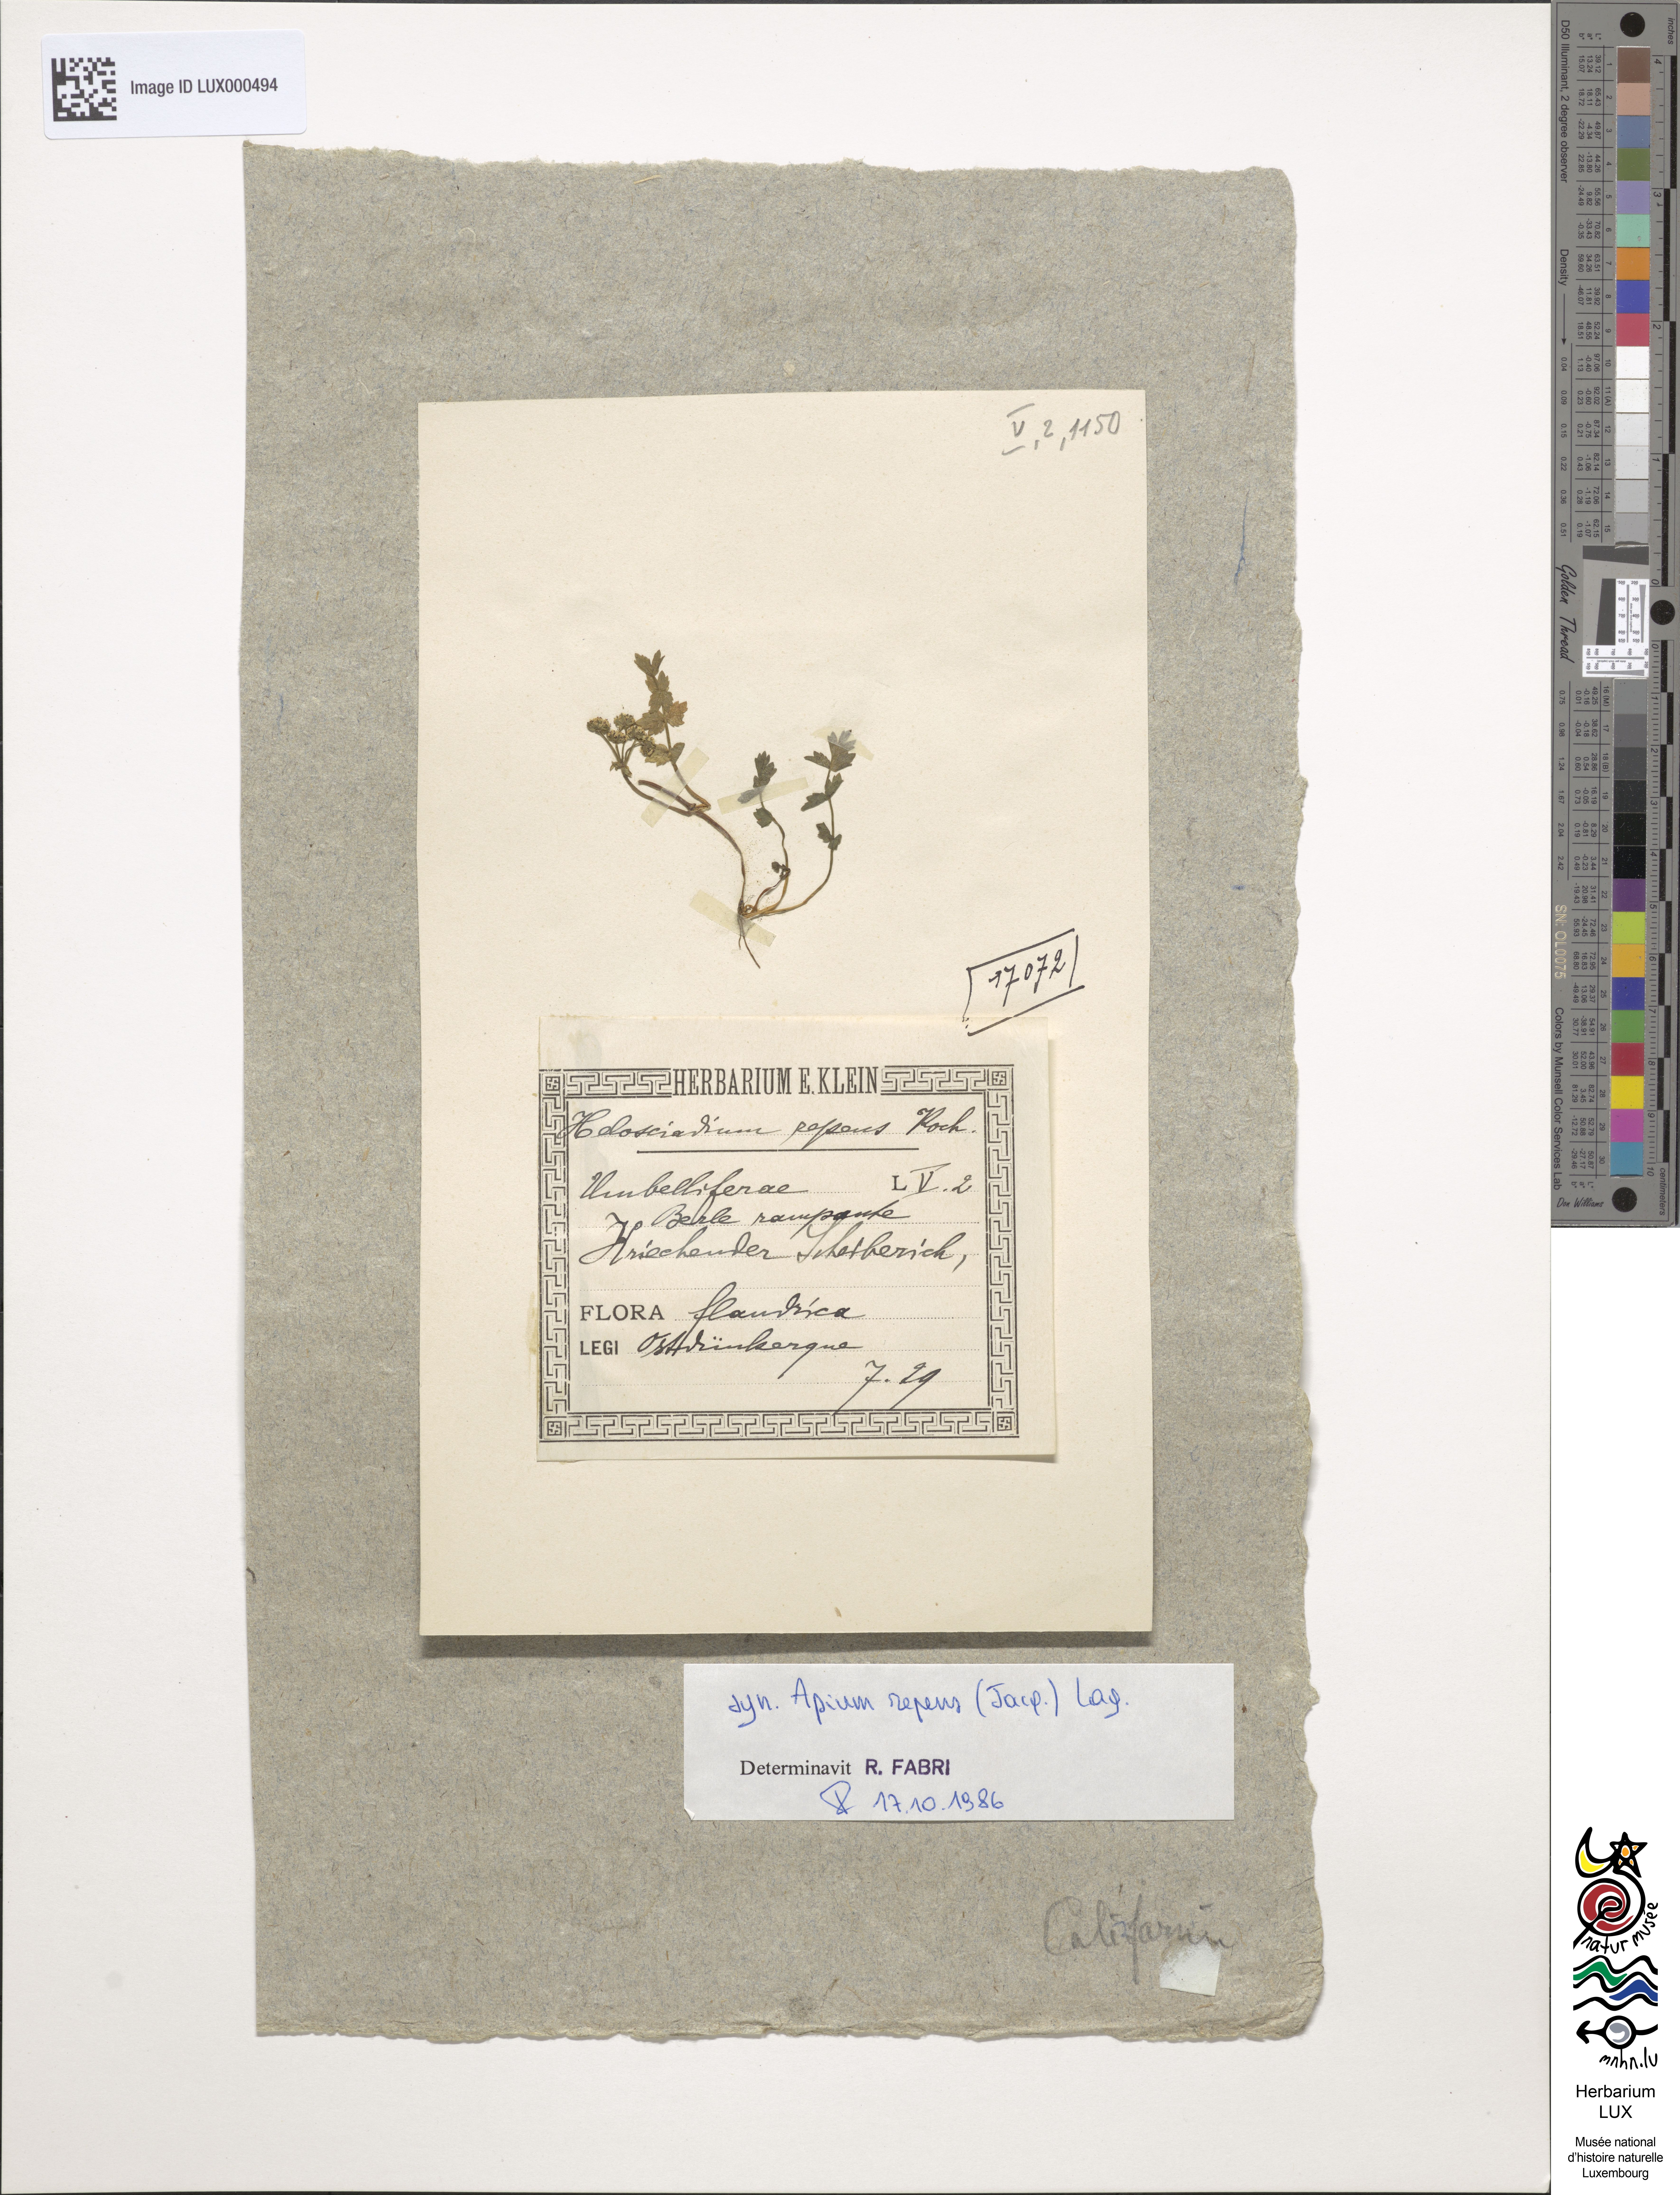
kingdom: Plantae
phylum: Tracheophyta
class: Magnoliopsida
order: Apiales
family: Apiaceae
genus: Helosciadium
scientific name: Helosciadium repens
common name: Creeping marshwort
